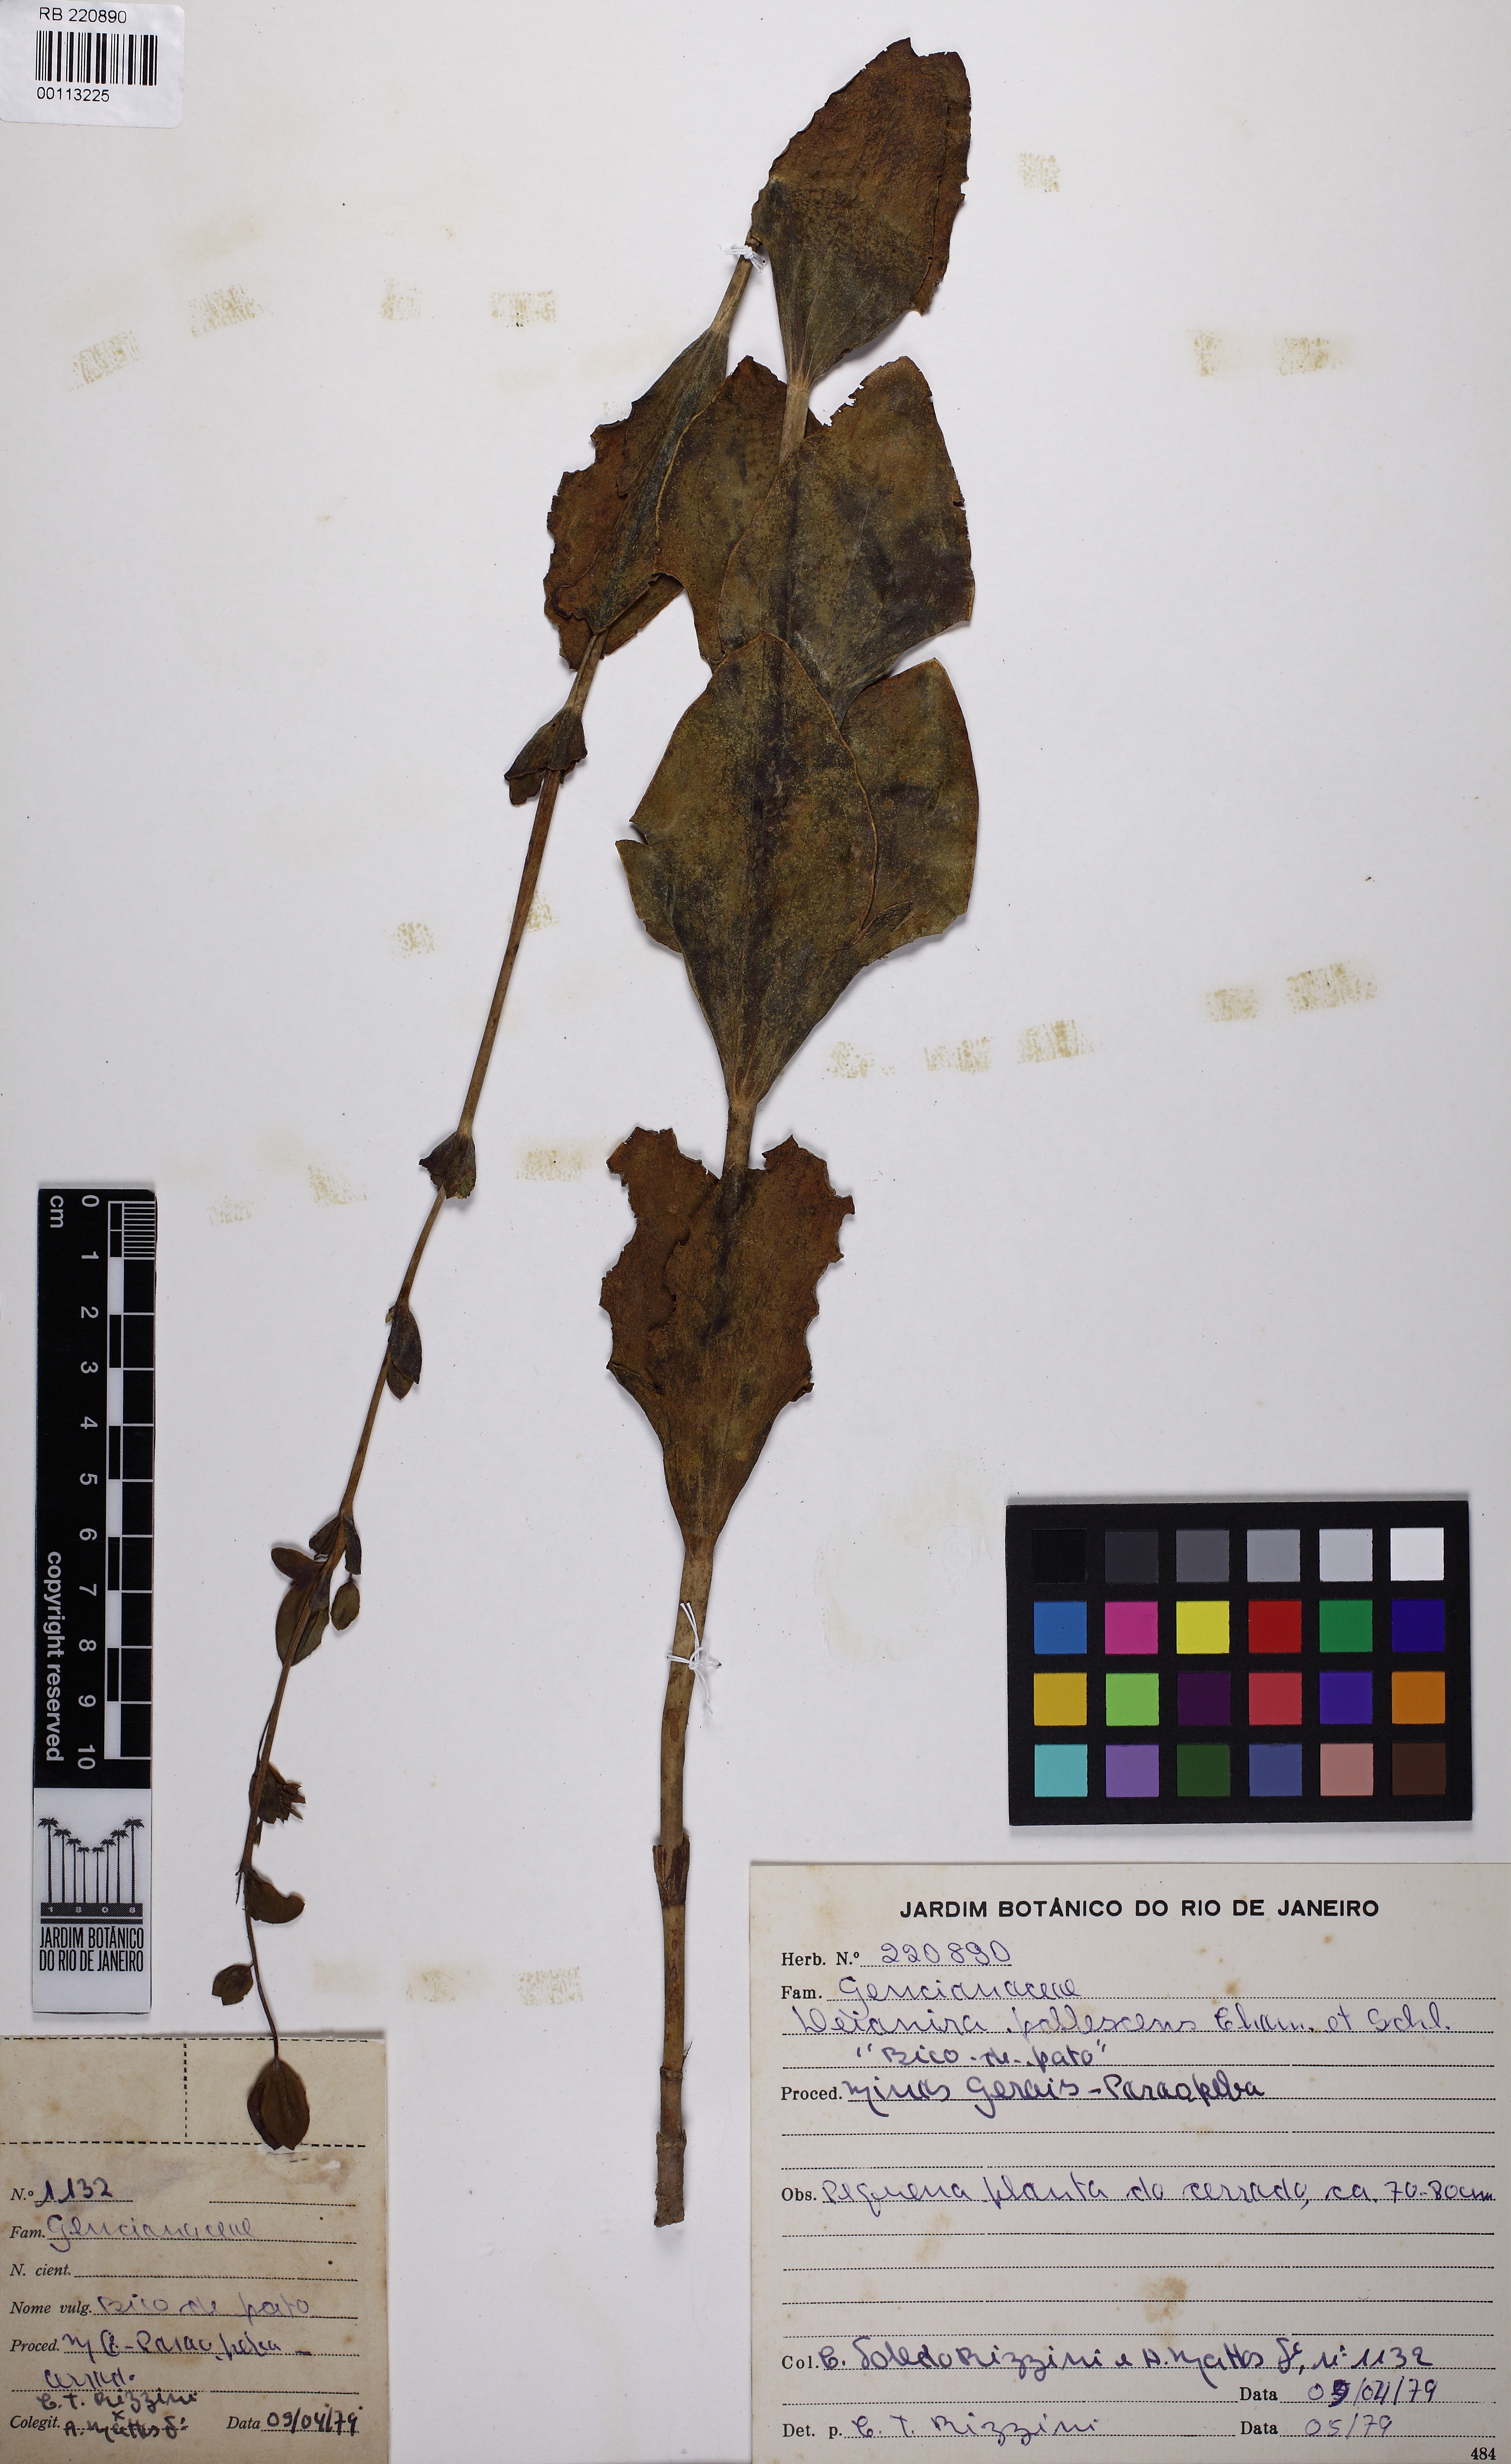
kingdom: Plantae
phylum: Tracheophyta
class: Magnoliopsida
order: Gentianales
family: Gentianaceae
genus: Deianira
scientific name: Deianira pallescens
